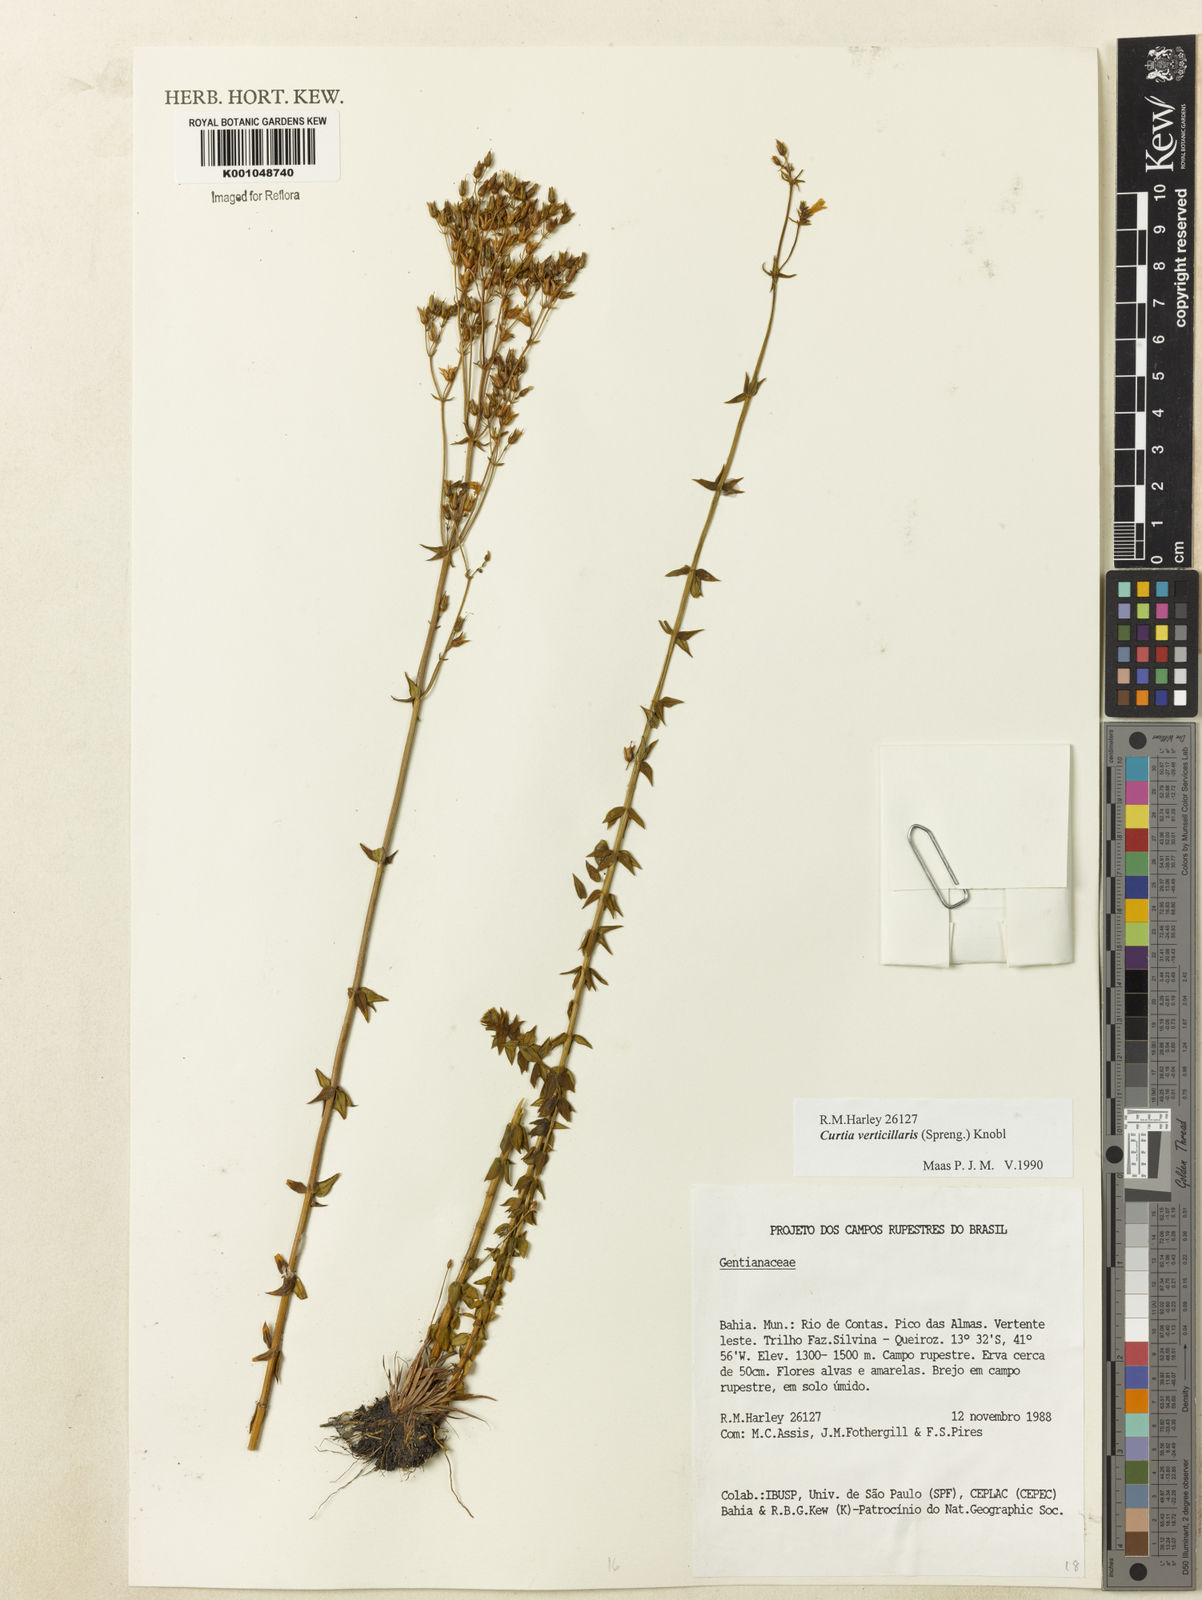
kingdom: Plantae
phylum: Tracheophyta
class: Magnoliopsida
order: Gentianales
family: Gentianaceae
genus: Curtia
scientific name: Curtia verticillaris
